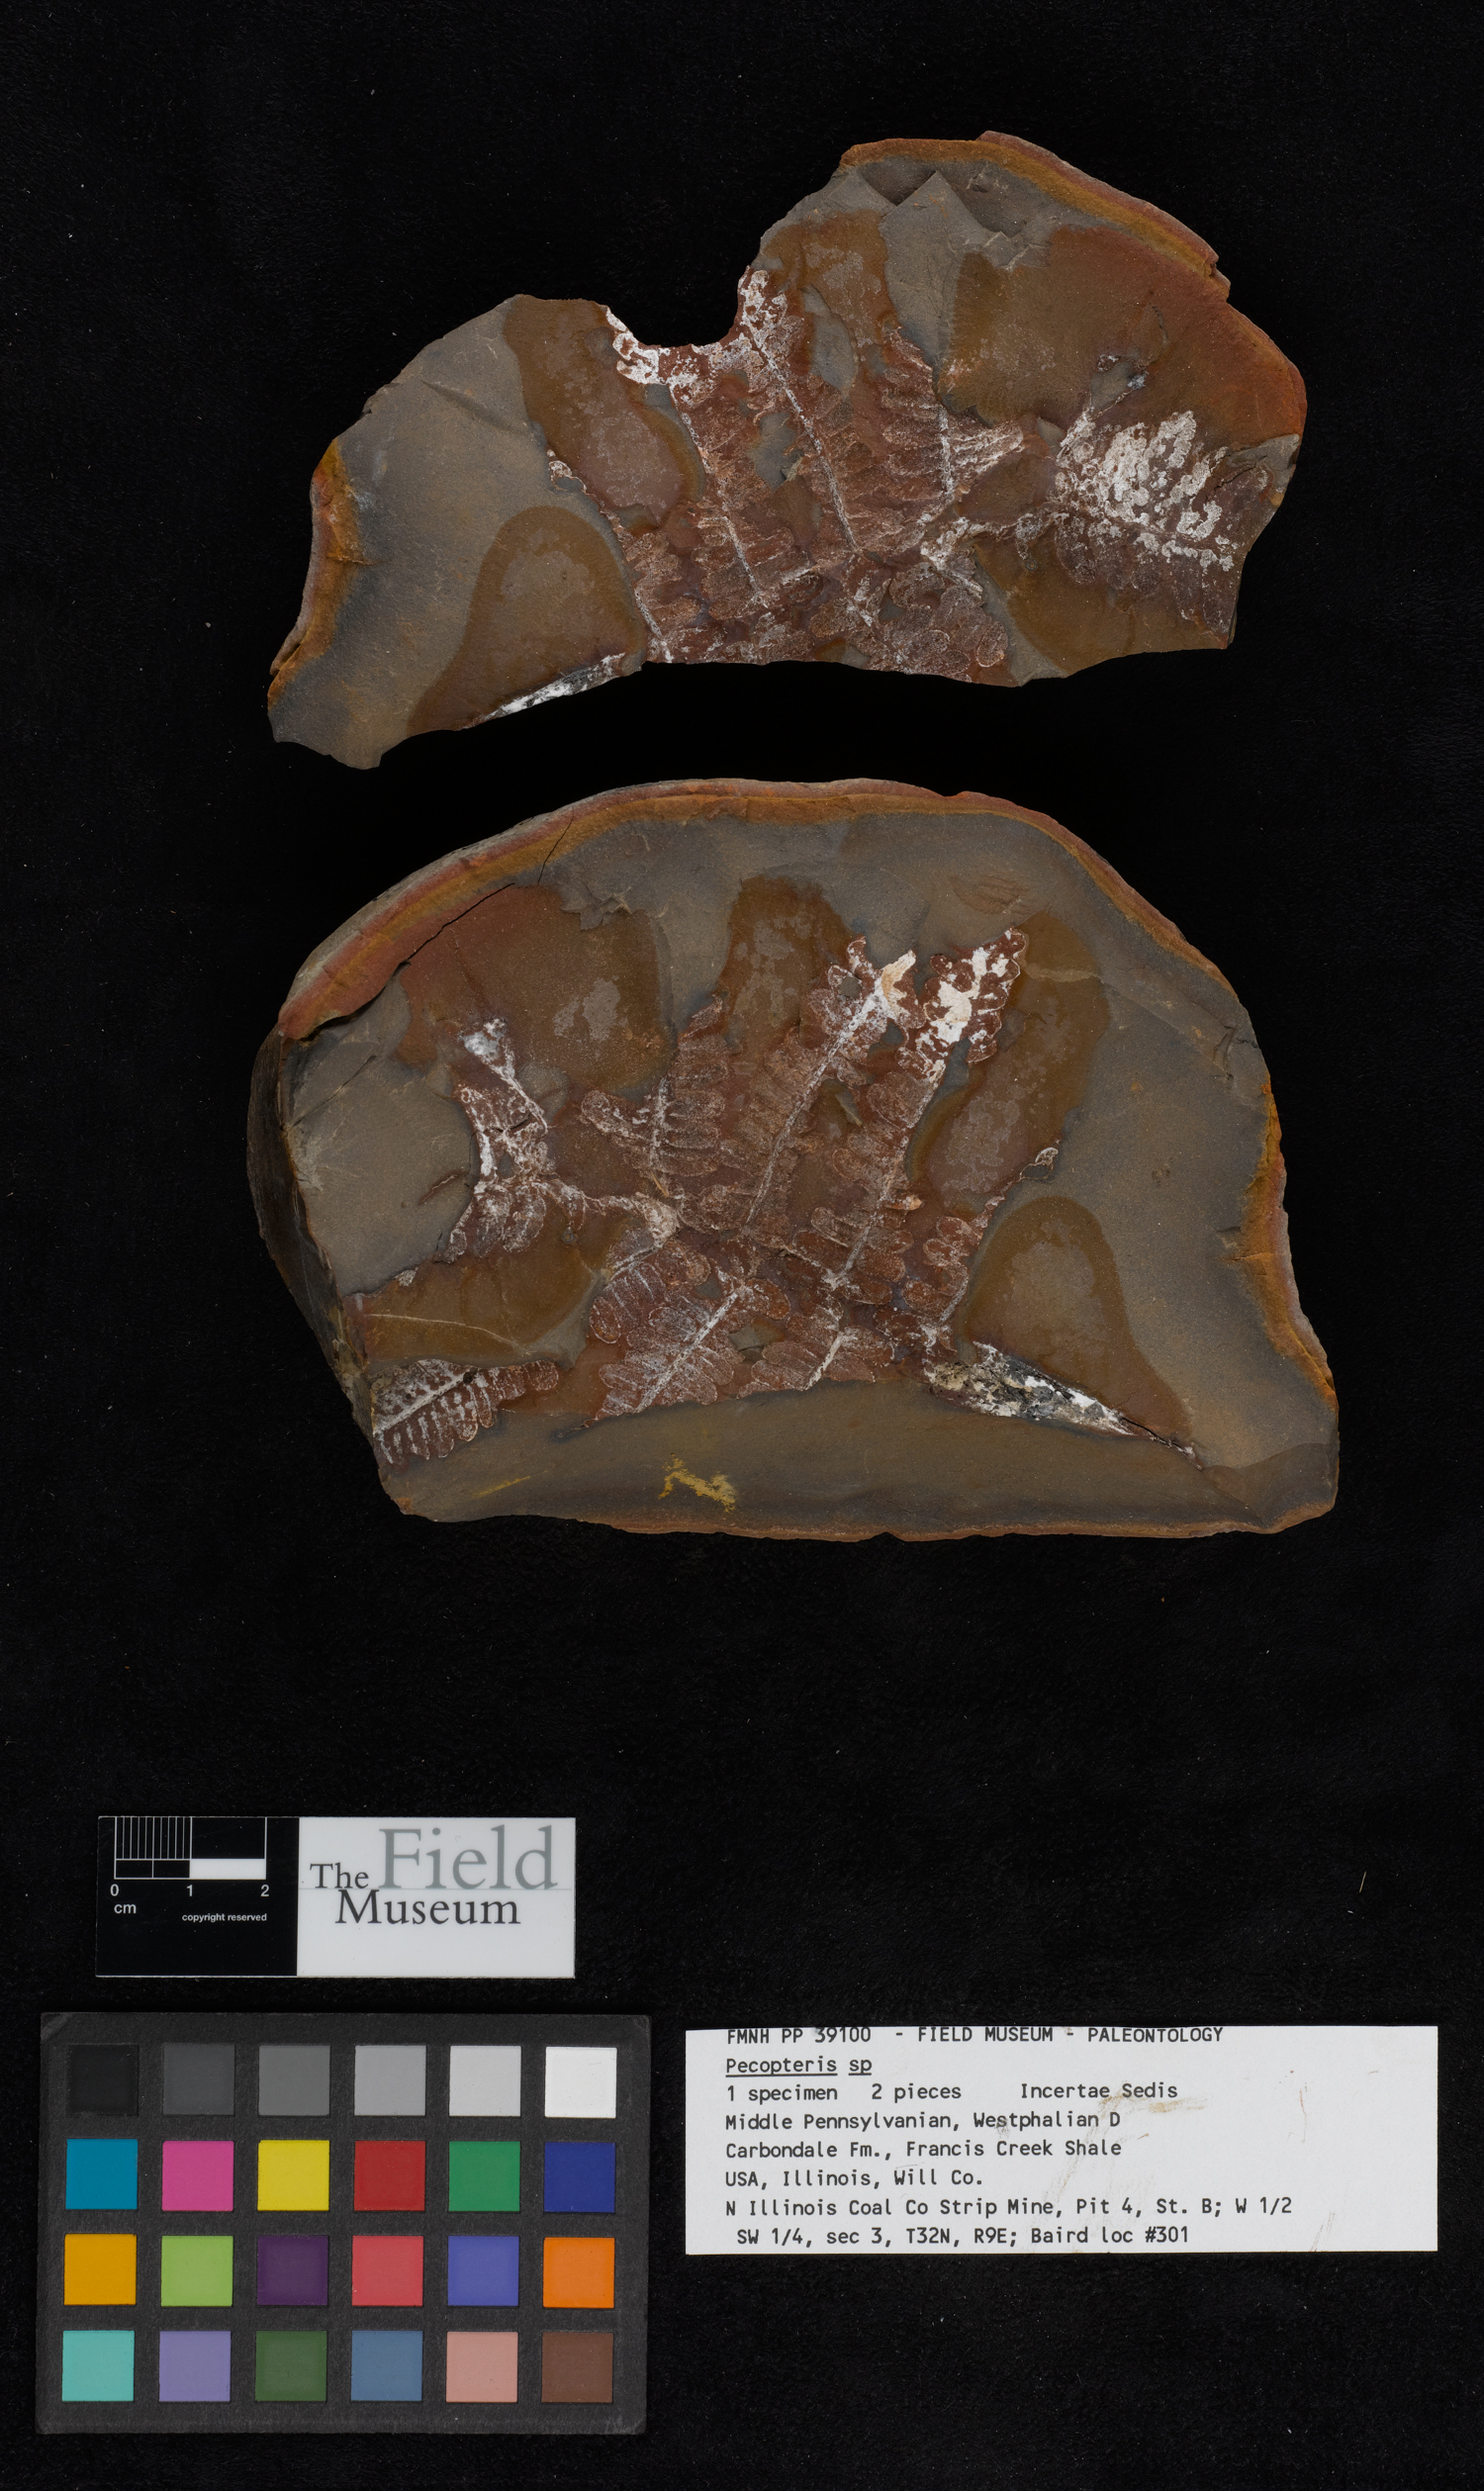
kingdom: Plantae
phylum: Tracheophyta
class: Polypodiopsida
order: Marattiales
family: Asterothecaceae
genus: Pecopteris
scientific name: Pecopteris
